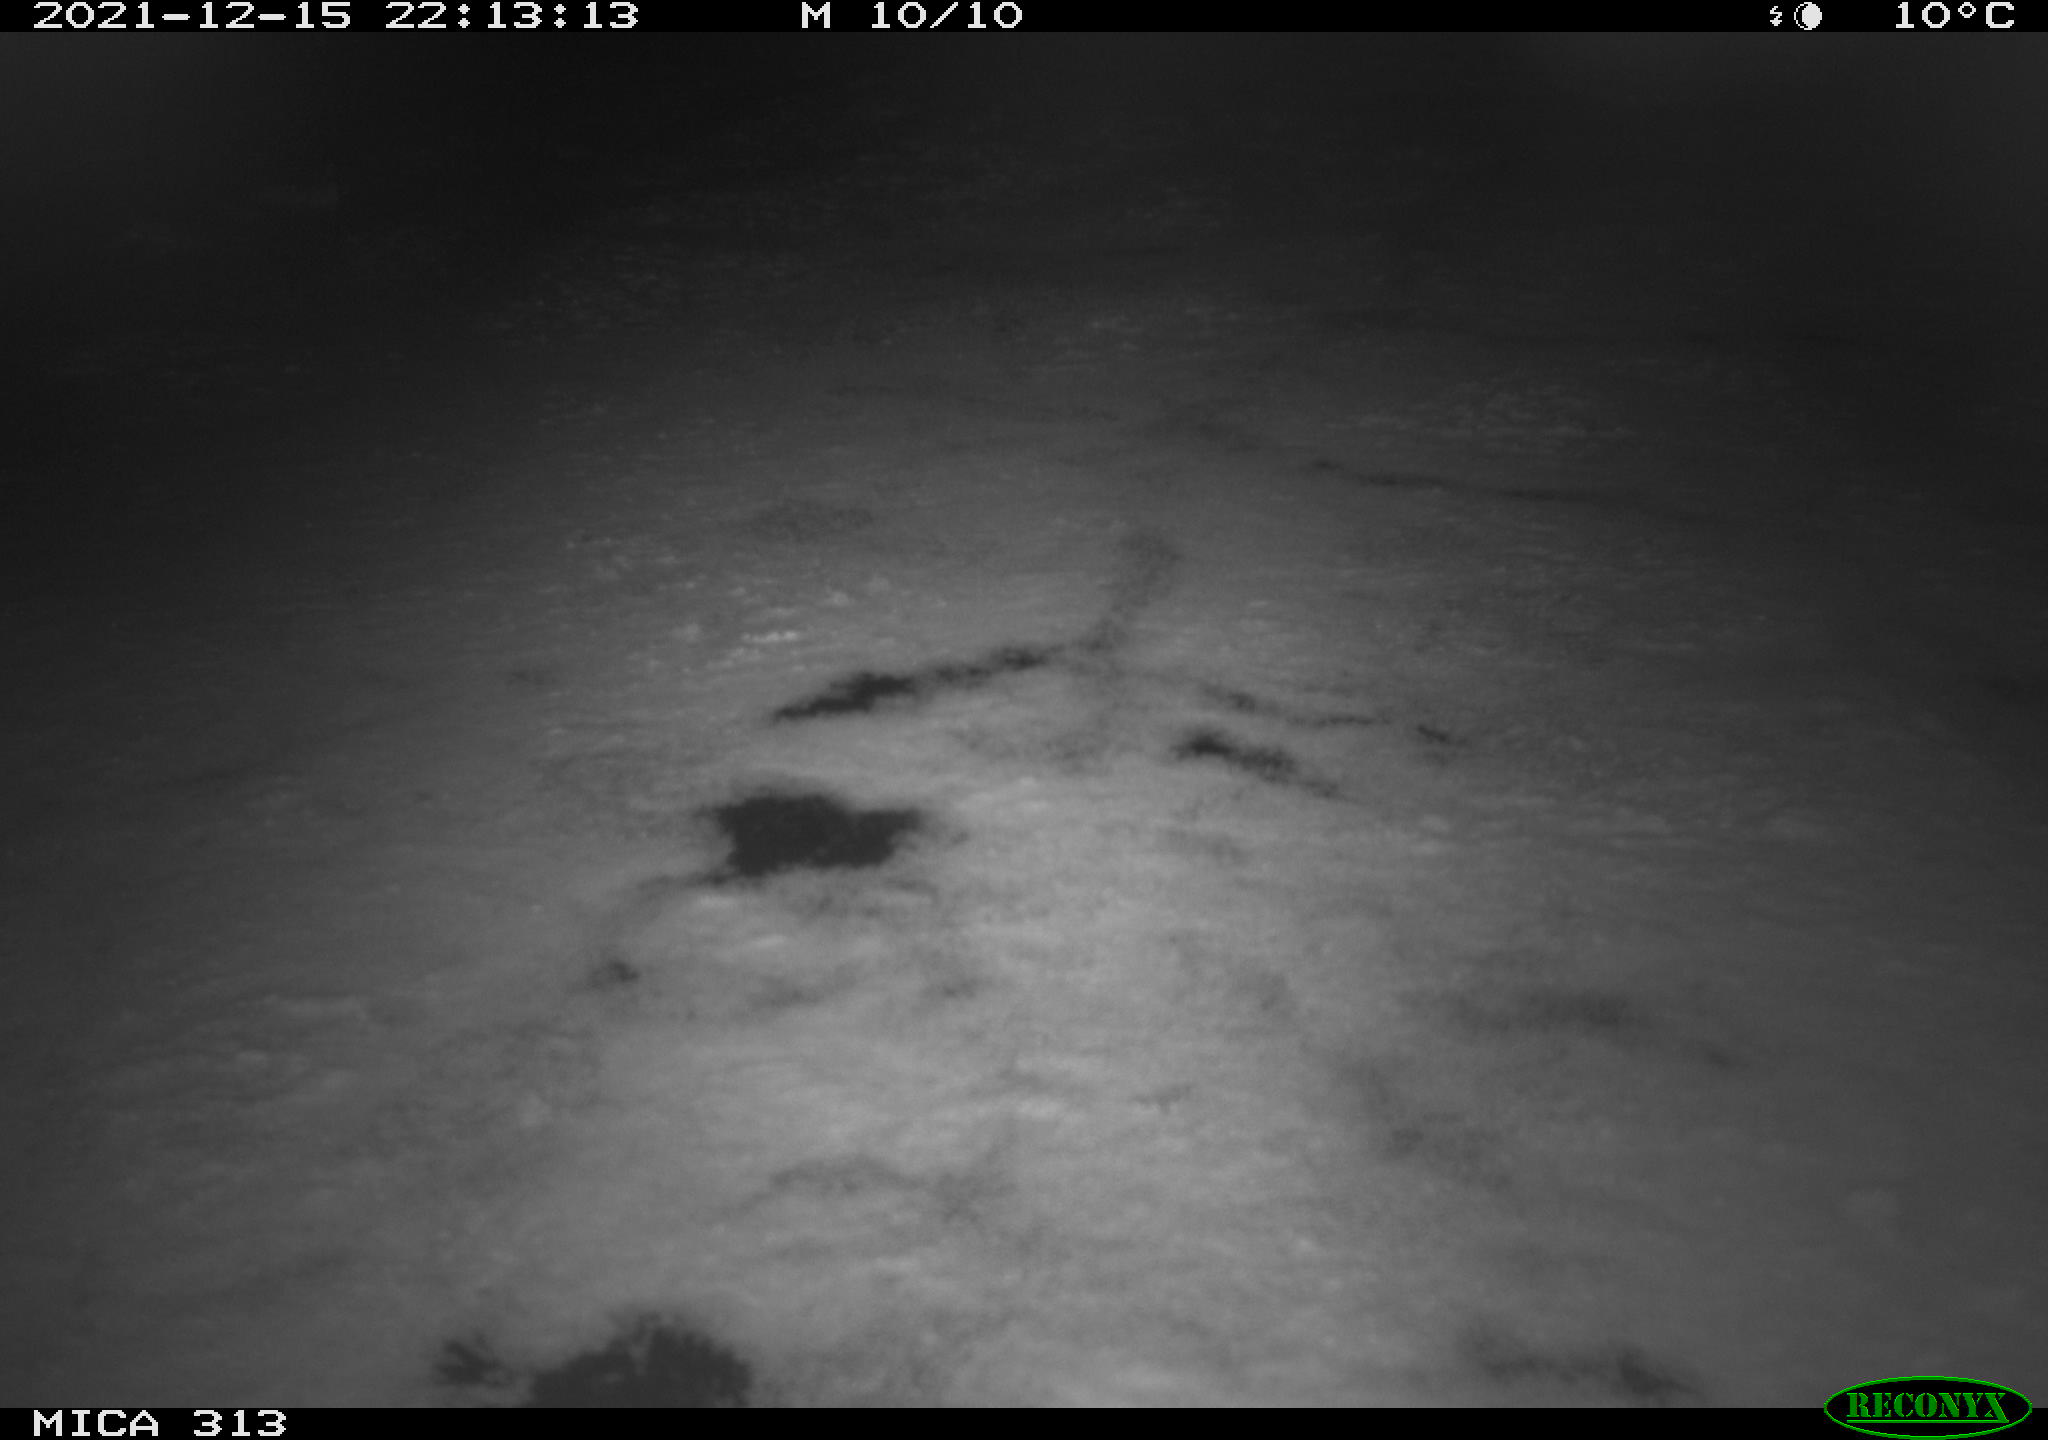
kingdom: Animalia
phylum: Chordata
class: Aves
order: Gruiformes
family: Rallidae
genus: Gallinula
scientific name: Gallinula chloropus
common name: Common moorhen
